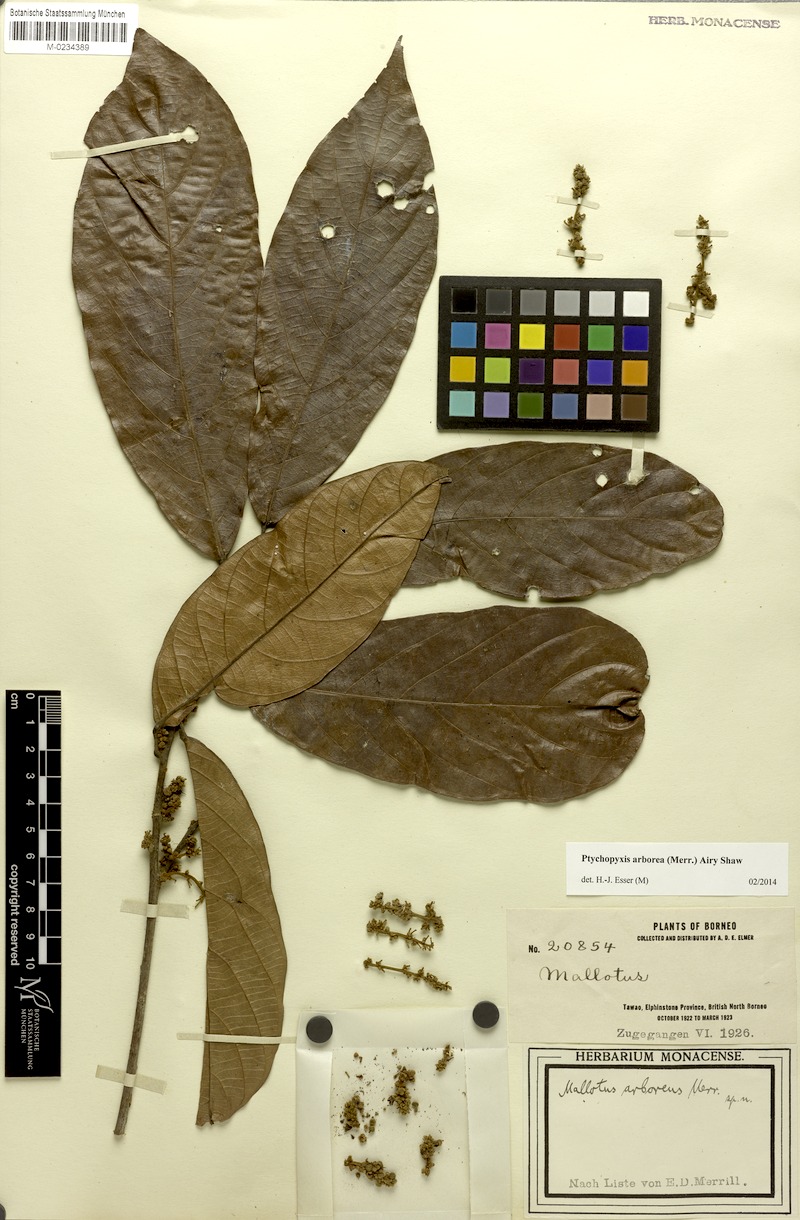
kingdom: Plantae
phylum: Tracheophyta
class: Magnoliopsida
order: Malpighiales
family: Euphorbiaceae
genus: Ptychopyxis
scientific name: Ptychopyxis arborea
